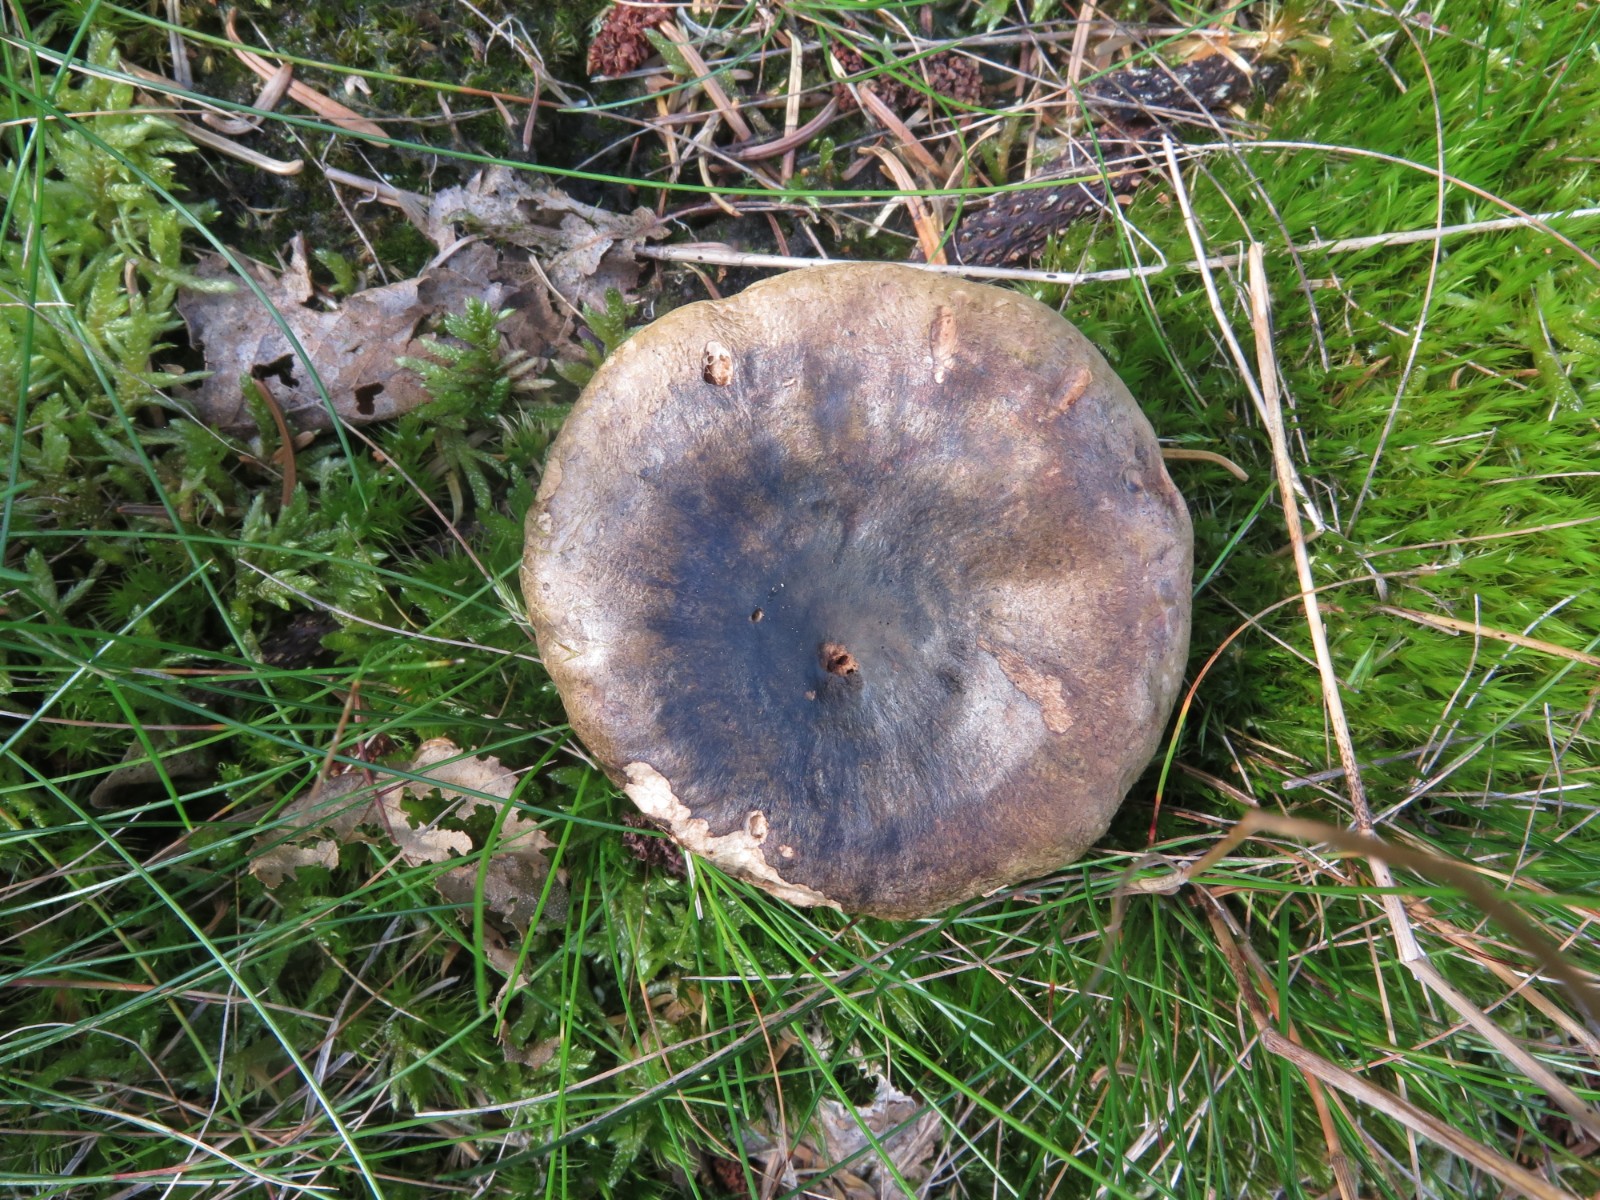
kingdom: Fungi
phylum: Basidiomycota
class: Agaricomycetes
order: Russulales
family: Russulaceae
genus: Lactarius
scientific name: Lactarius necator
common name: manddraber-mælkehat
